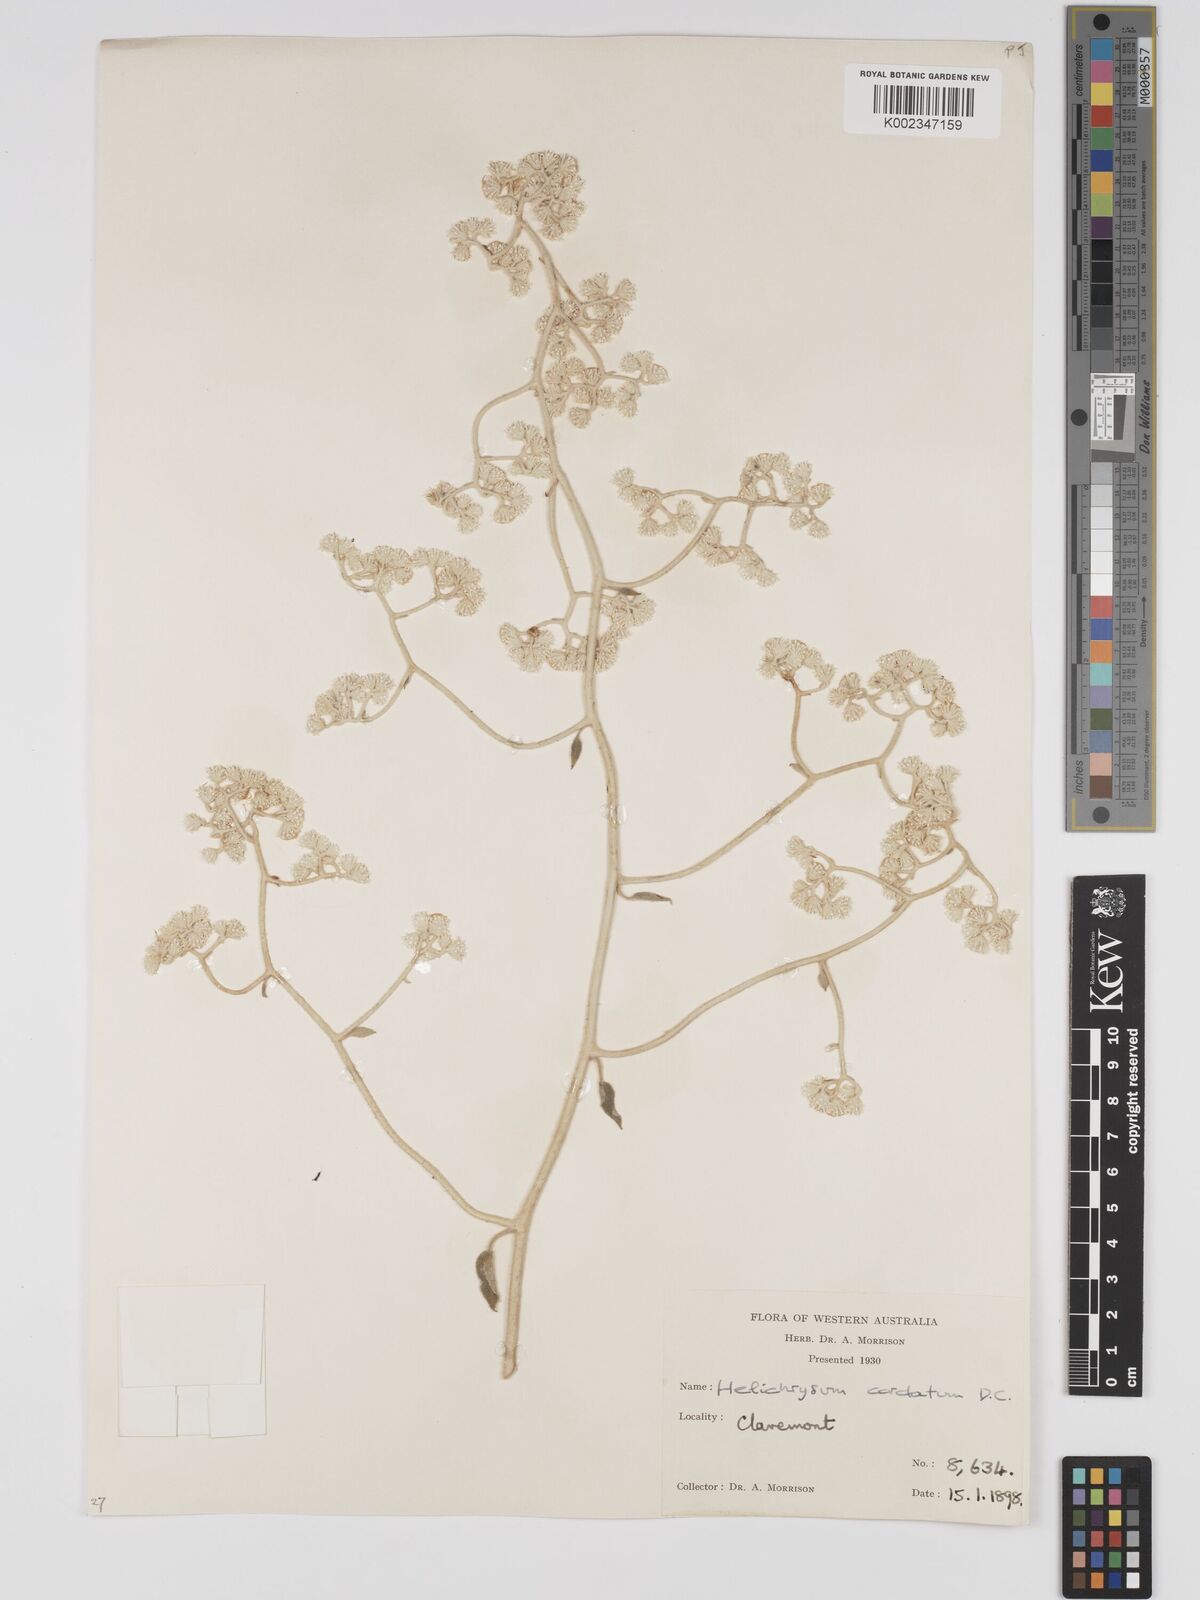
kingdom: Plantae
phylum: Tracheophyta
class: Magnoliopsida
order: Asterales
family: Asteraceae
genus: Ozothamnus
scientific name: Ozothamnus
